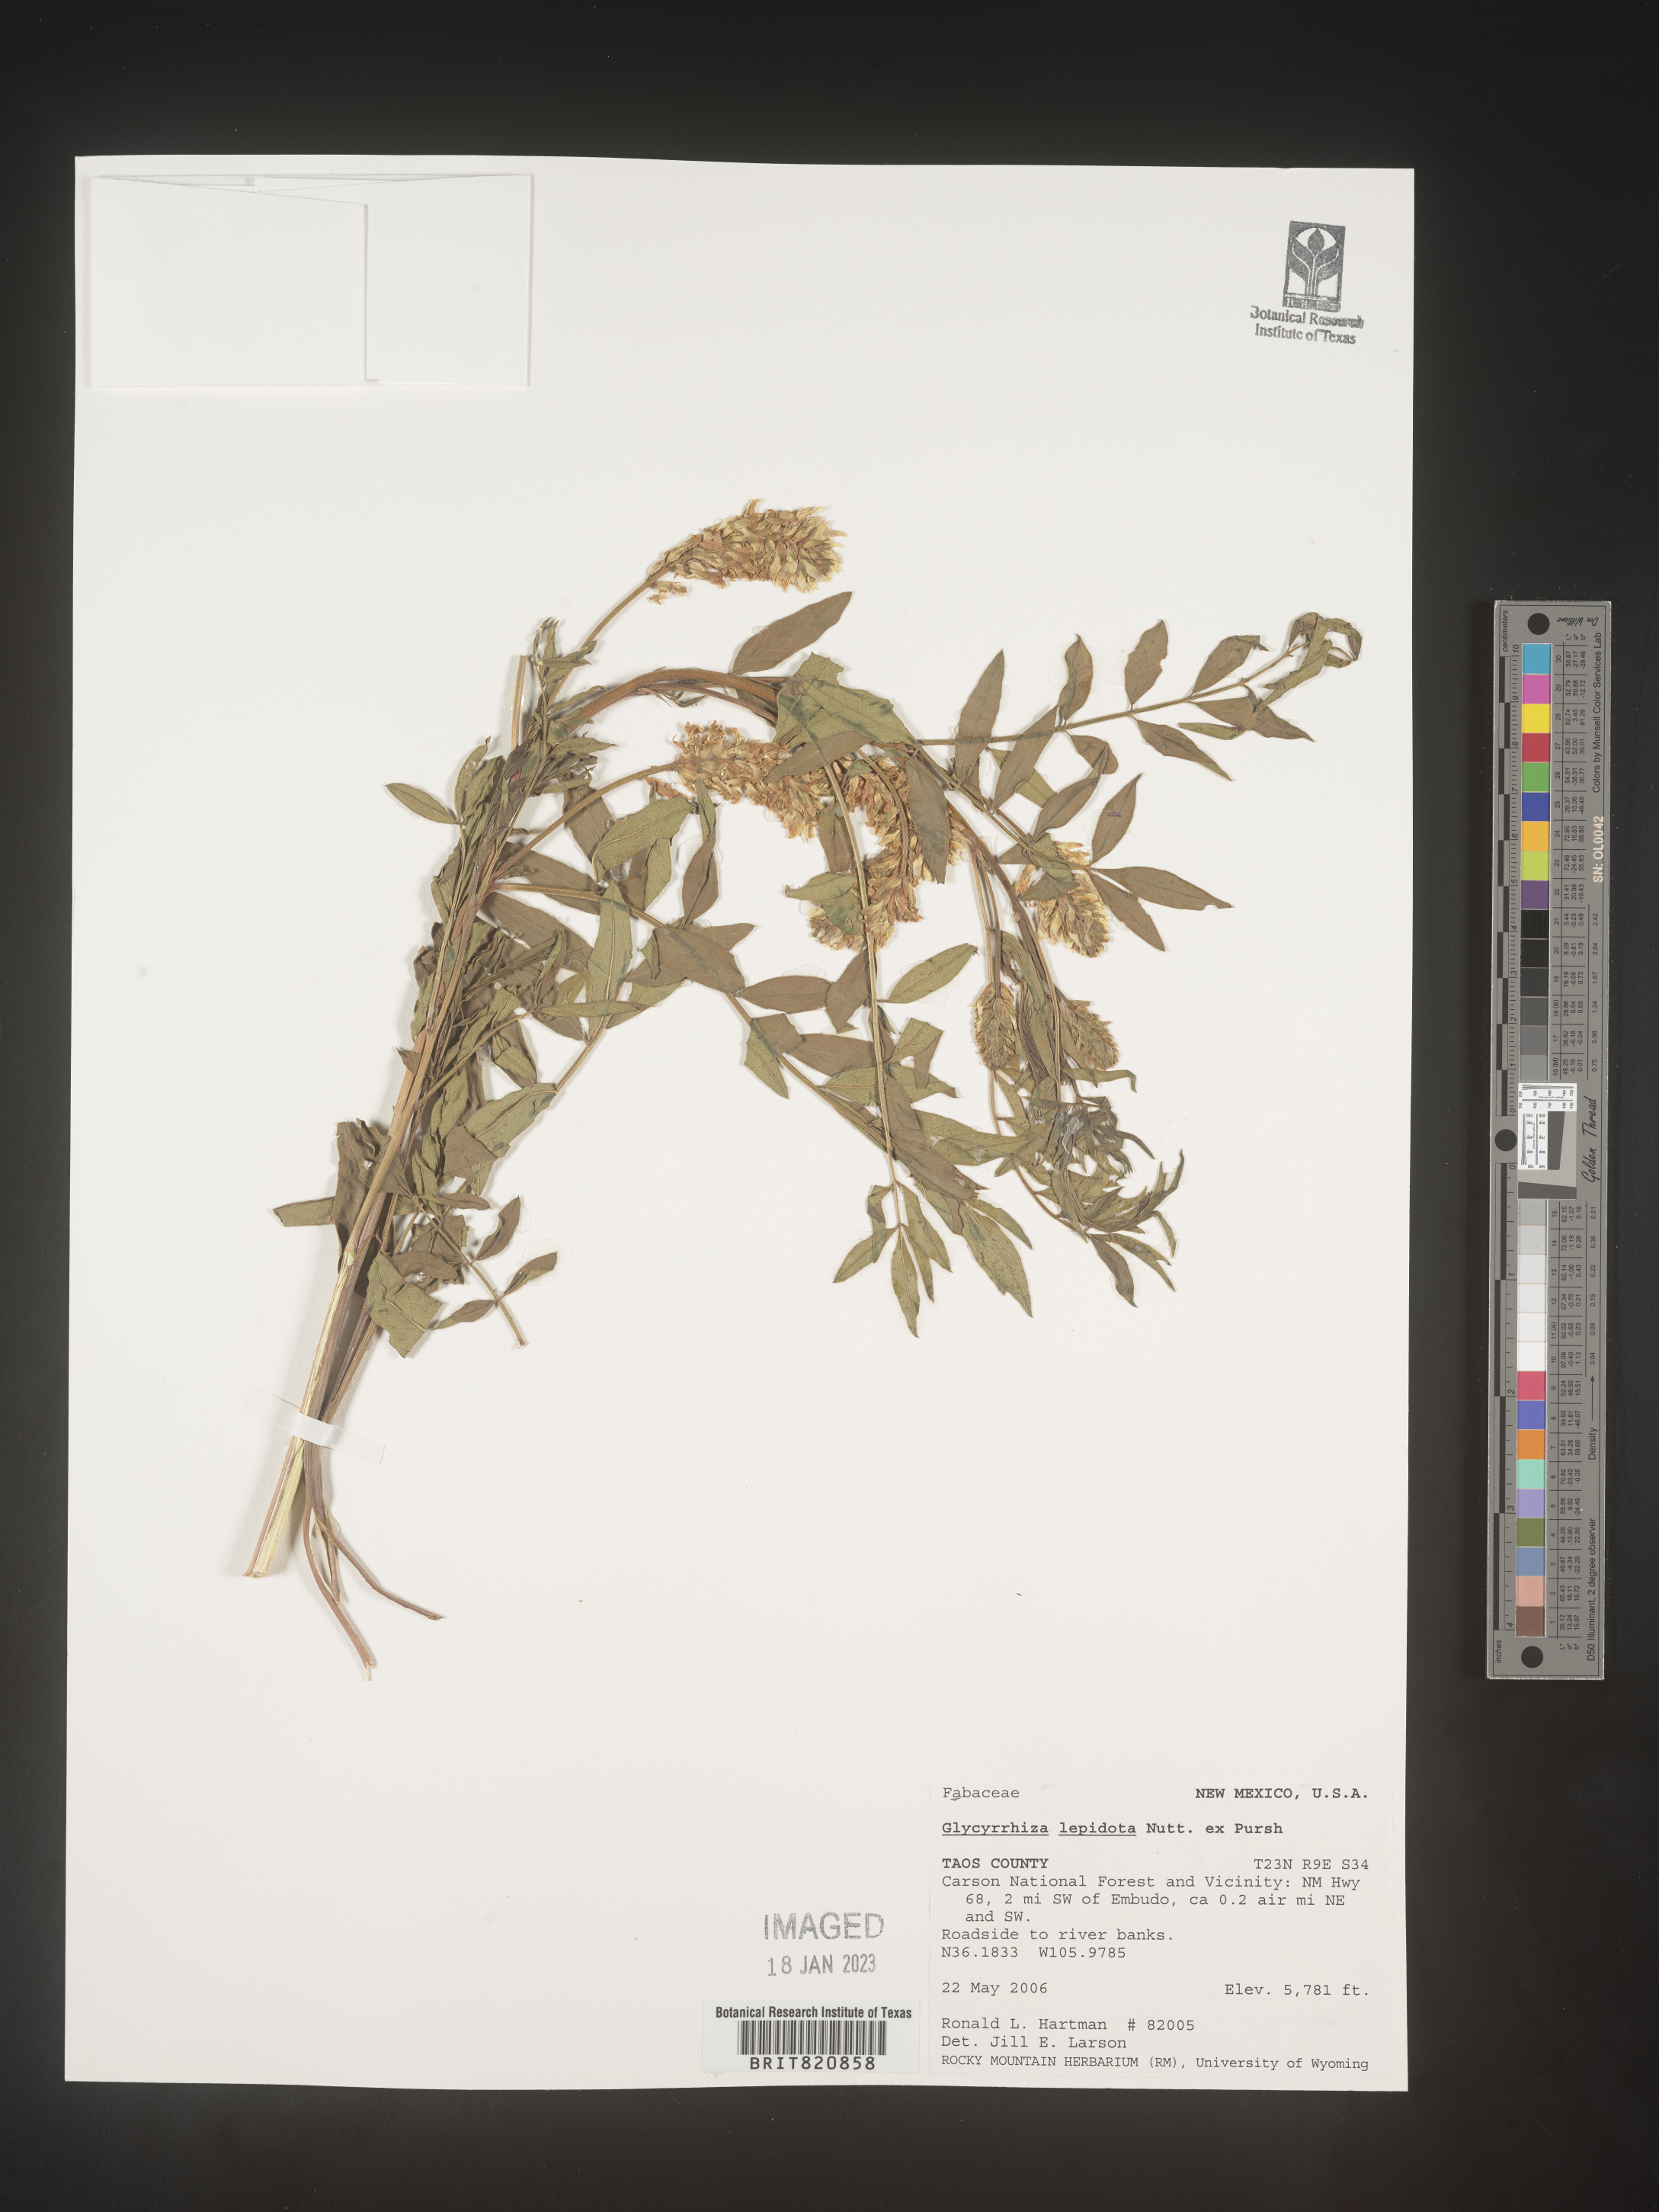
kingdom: Plantae
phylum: Tracheophyta
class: Magnoliopsida
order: Fabales
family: Fabaceae
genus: Glycyrrhiza
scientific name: Glycyrrhiza lepidota
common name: American liquorice
